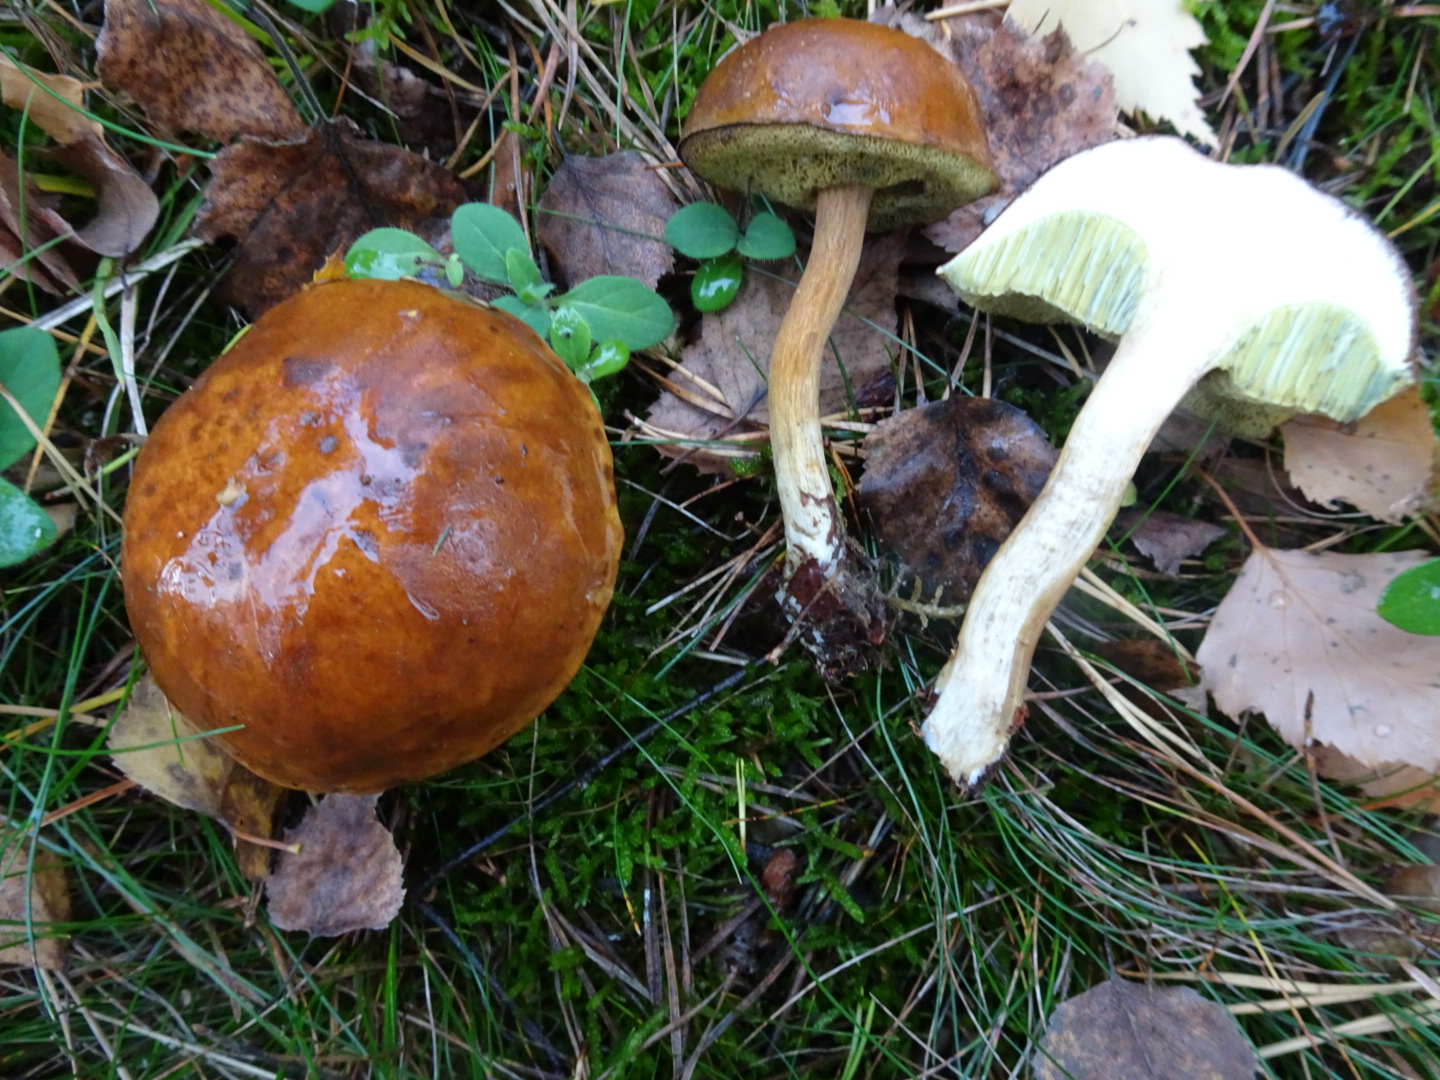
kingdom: Fungi
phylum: Basidiomycota
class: Agaricomycetes
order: Boletales
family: Boletaceae
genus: Imleria
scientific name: Imleria badia
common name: brunstokket rørhat
